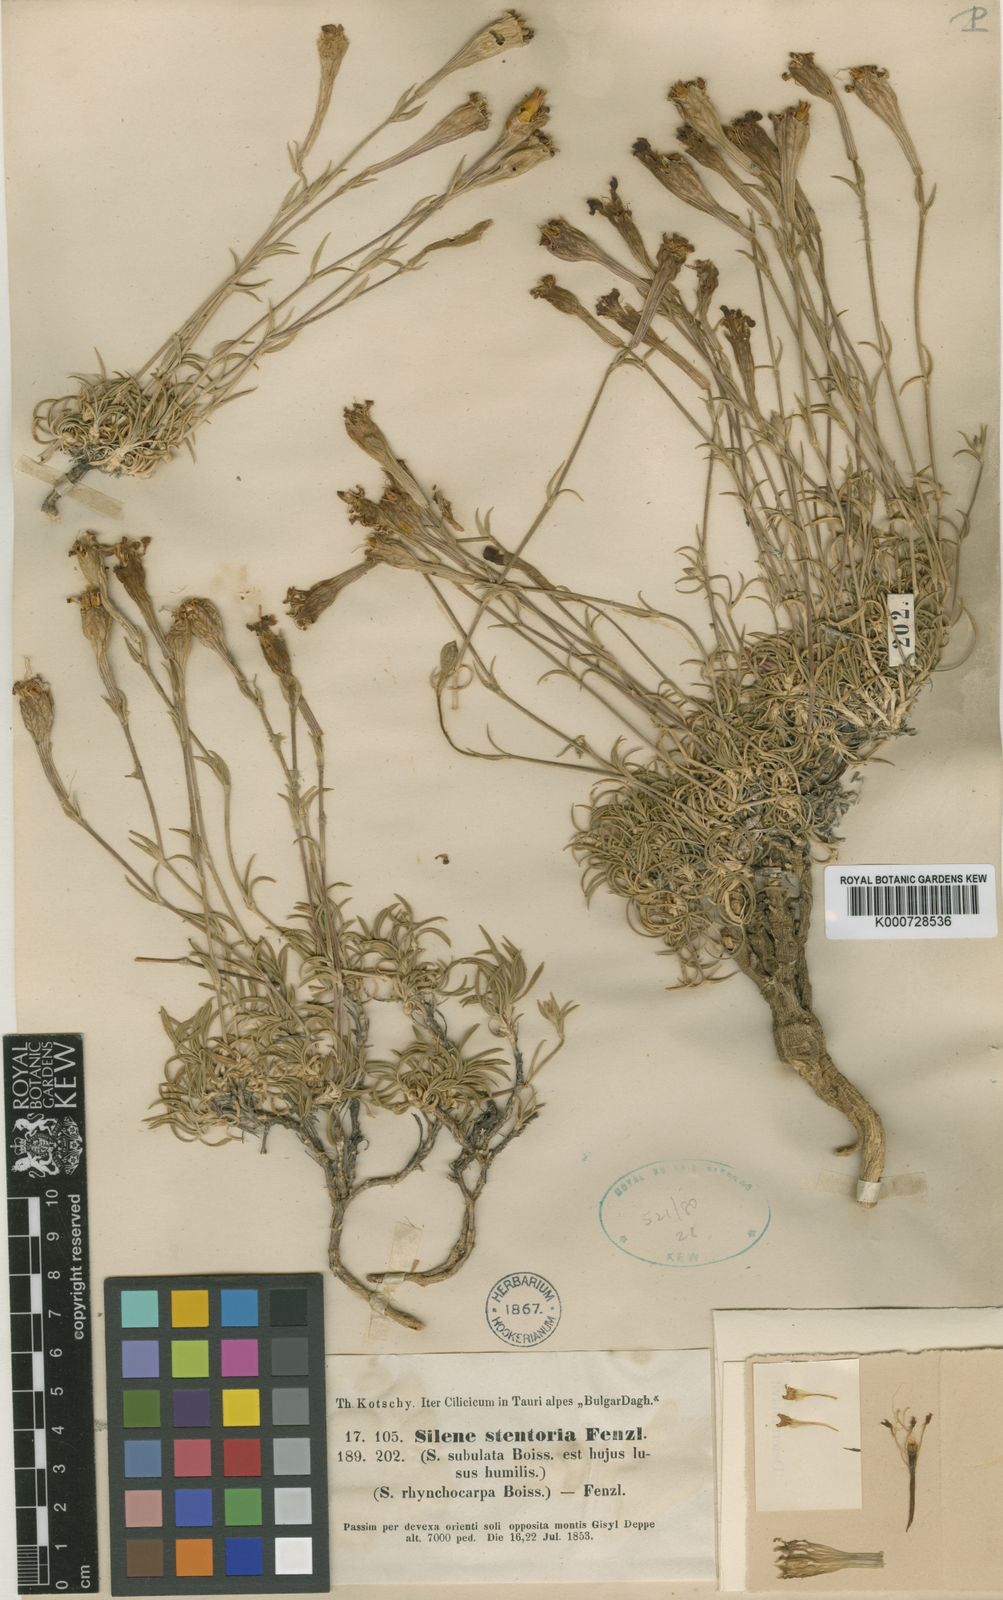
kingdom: Plantae
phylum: Tracheophyta
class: Magnoliopsida
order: Caryophyllales
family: Caryophyllaceae
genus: Silene
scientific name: Silene caryophylloides
